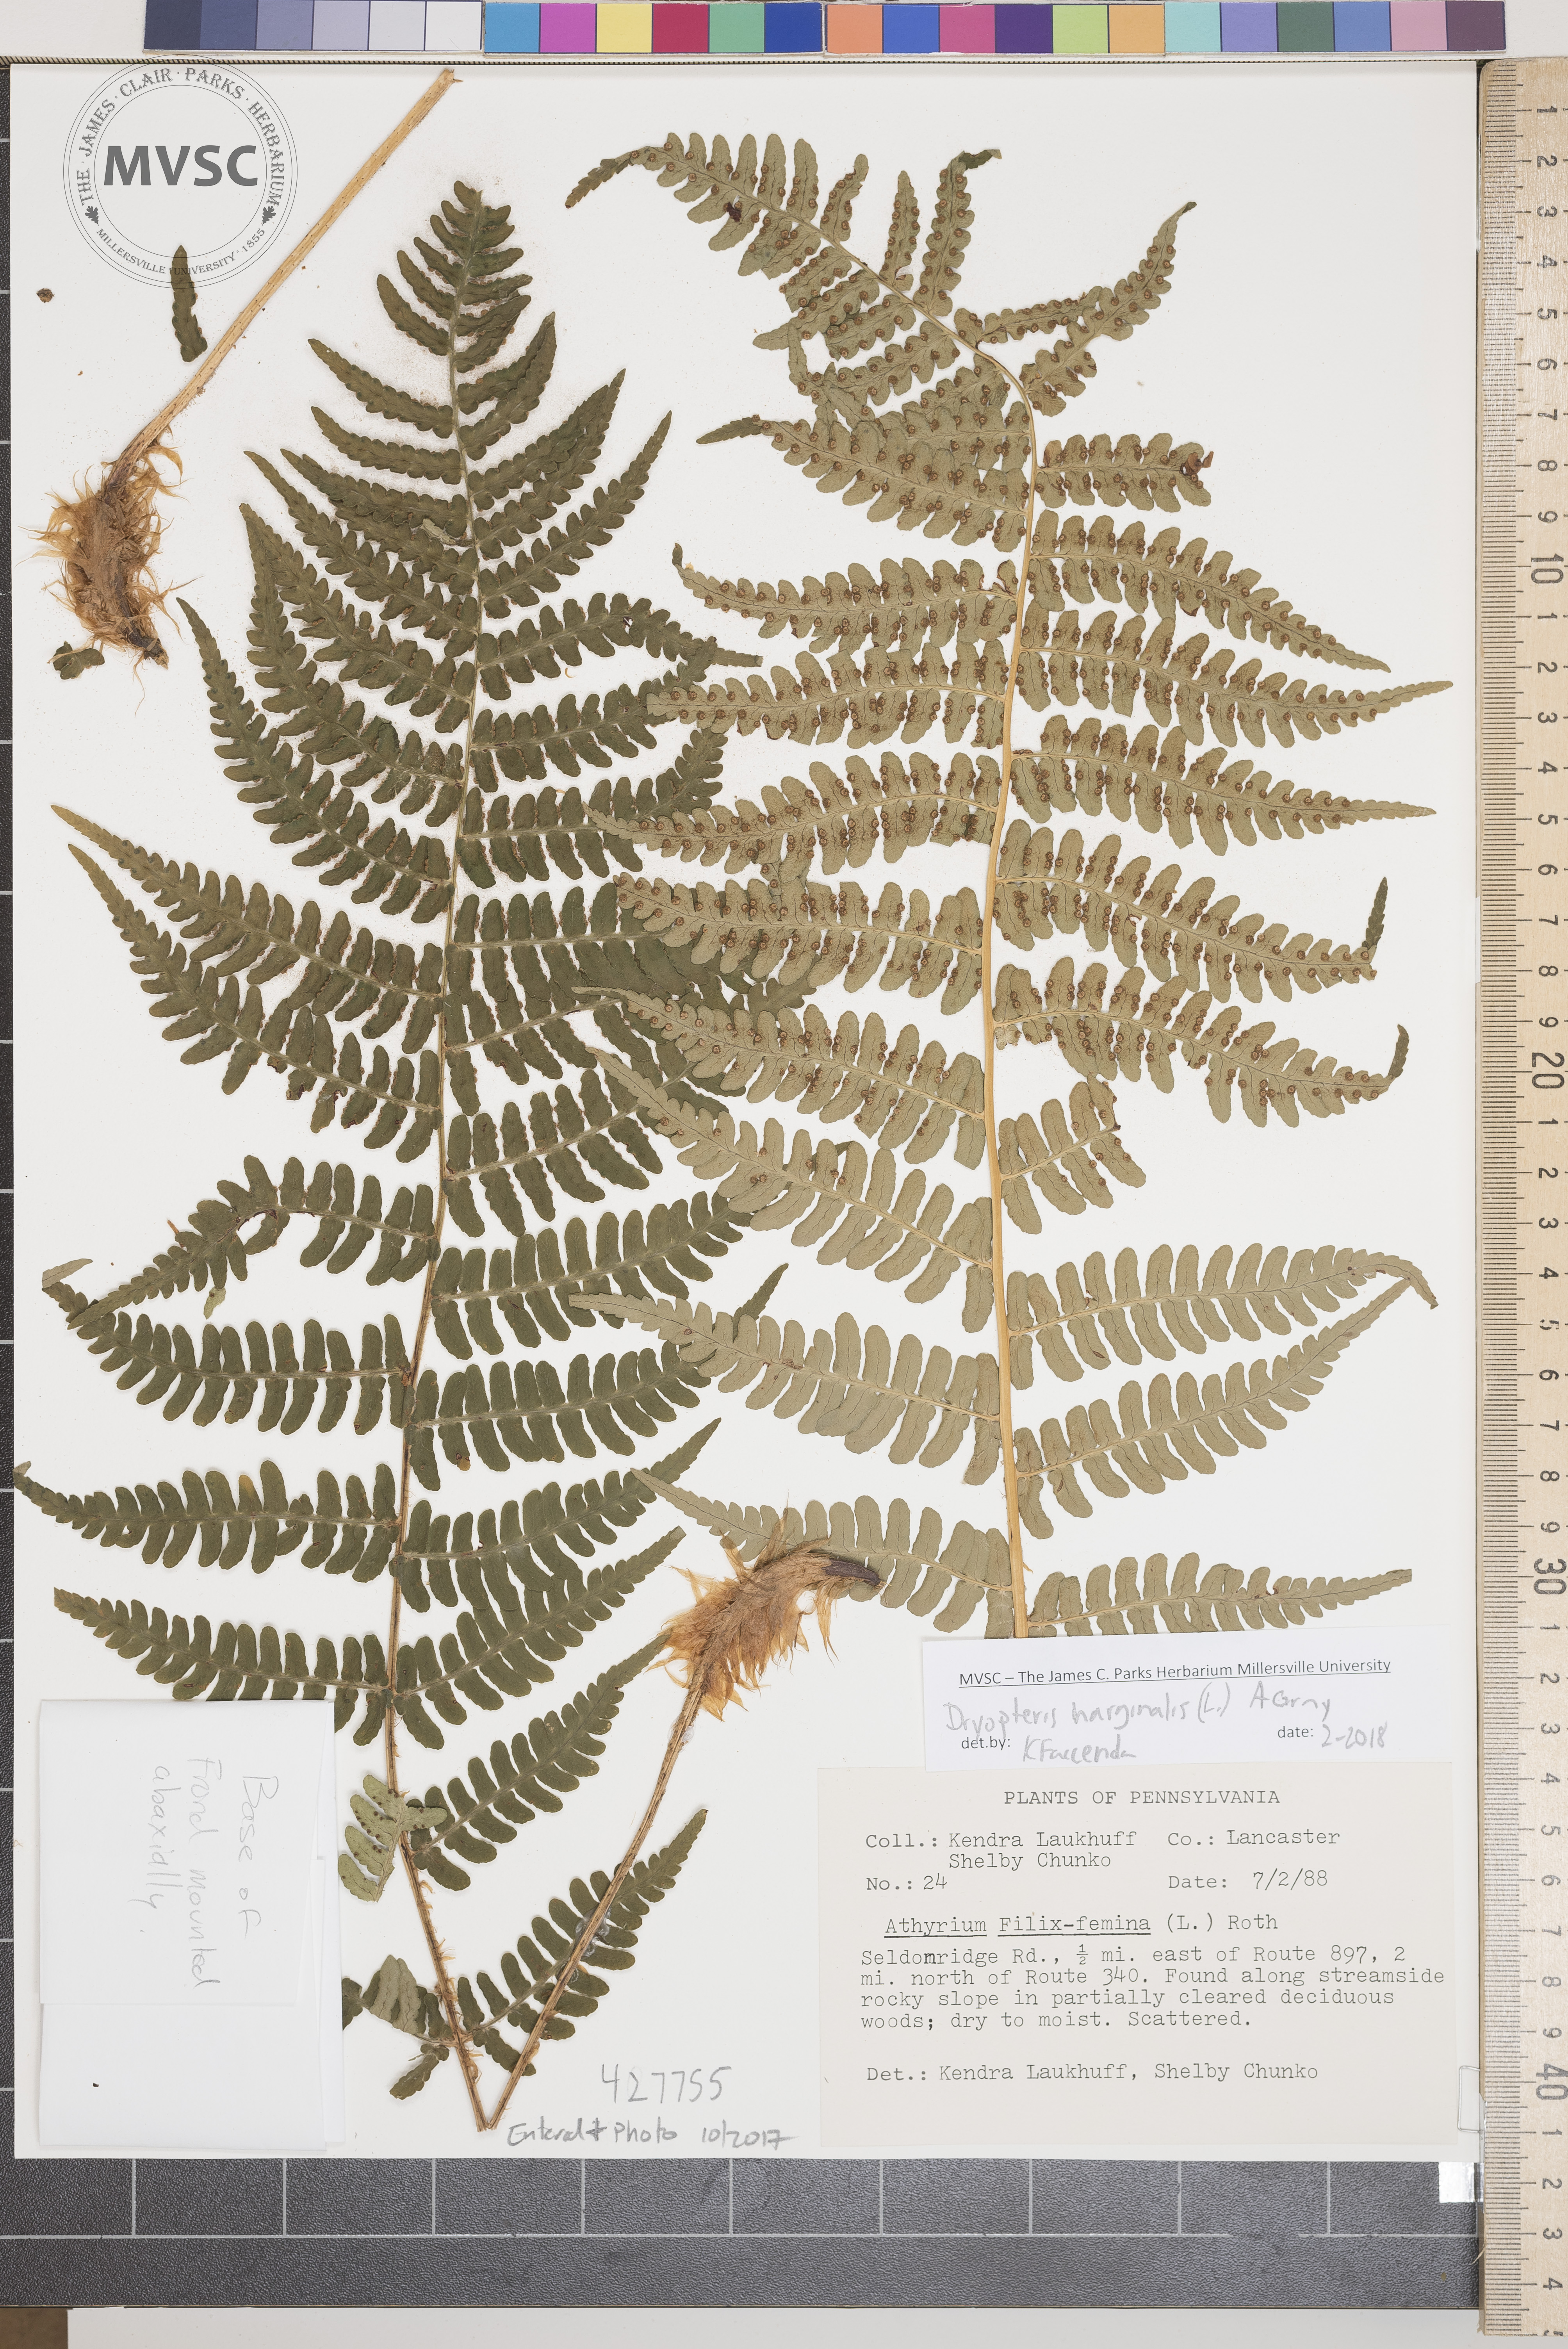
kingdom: Plantae
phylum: Tracheophyta
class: Polypodiopsida
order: Polypodiales
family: Dryopteridaceae
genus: Dryopteris
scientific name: Dryopteris marginalis
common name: Marginal woodfern
